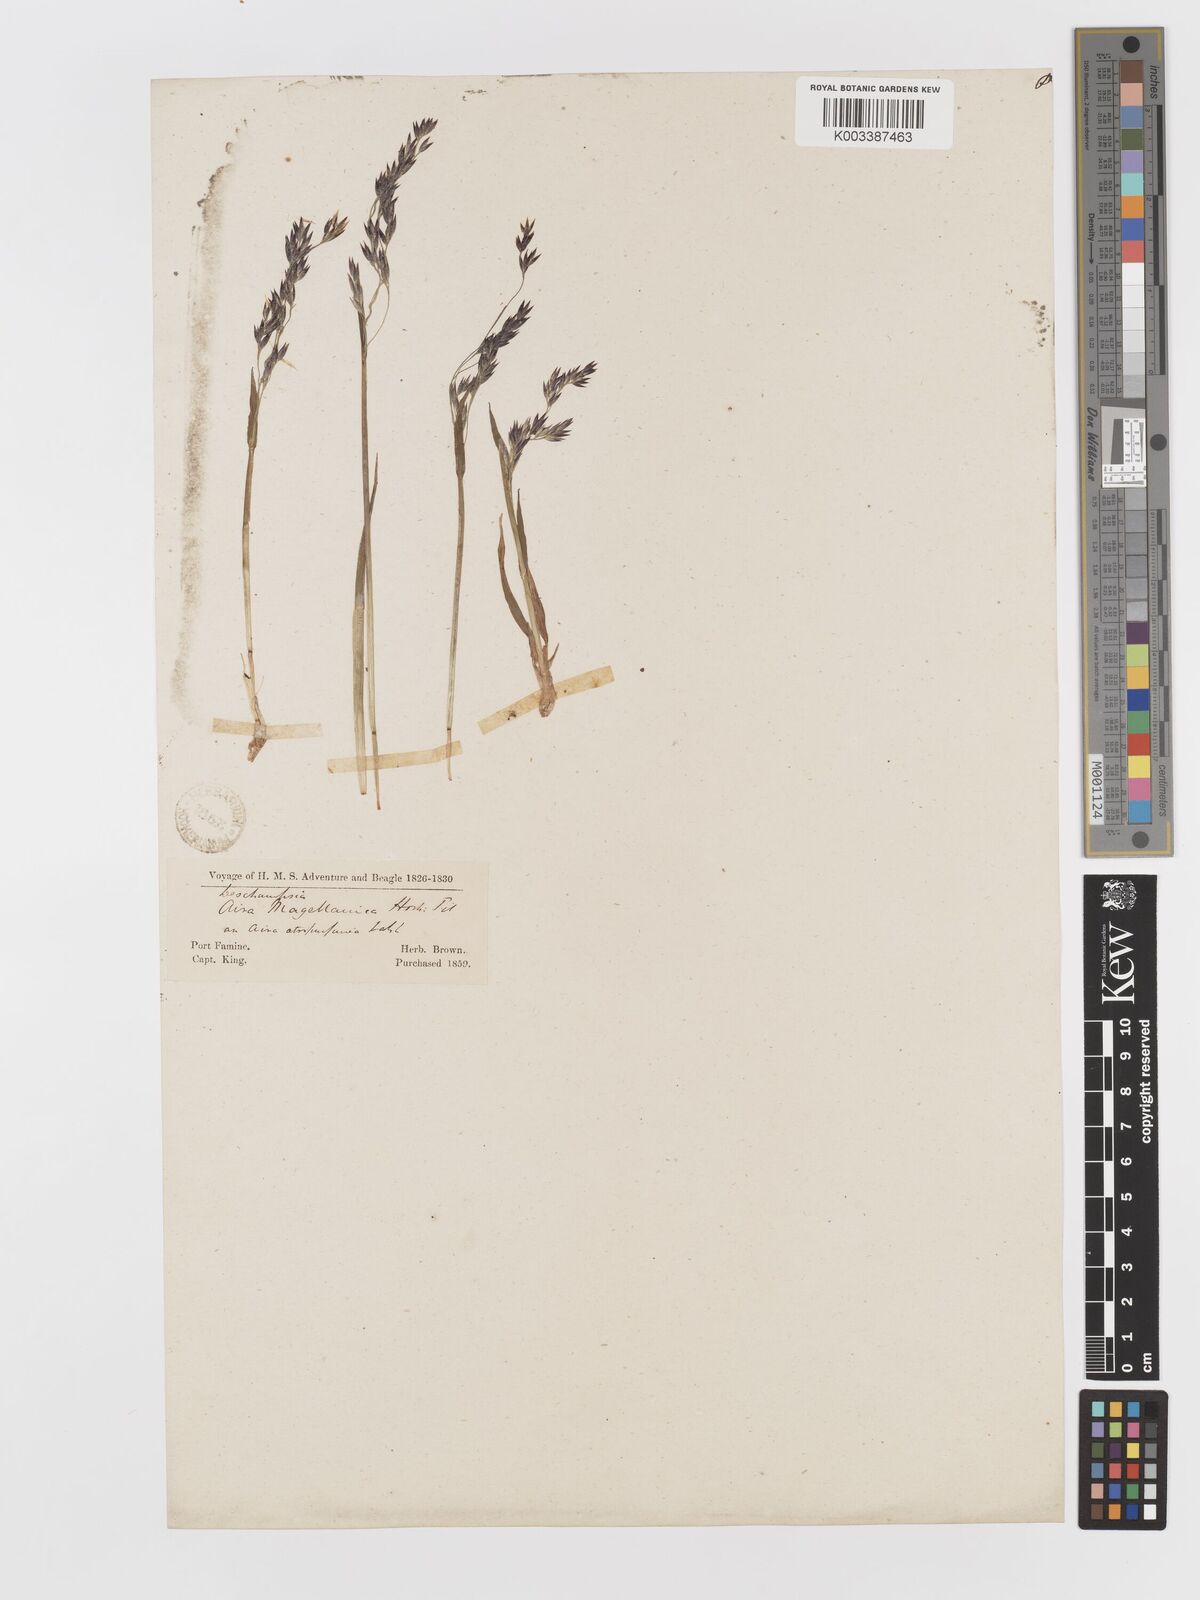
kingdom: Plantae
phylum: Tracheophyta
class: Liliopsida
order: Poales
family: Poaceae
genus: Vahlodea
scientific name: Vahlodea atropurpurea
